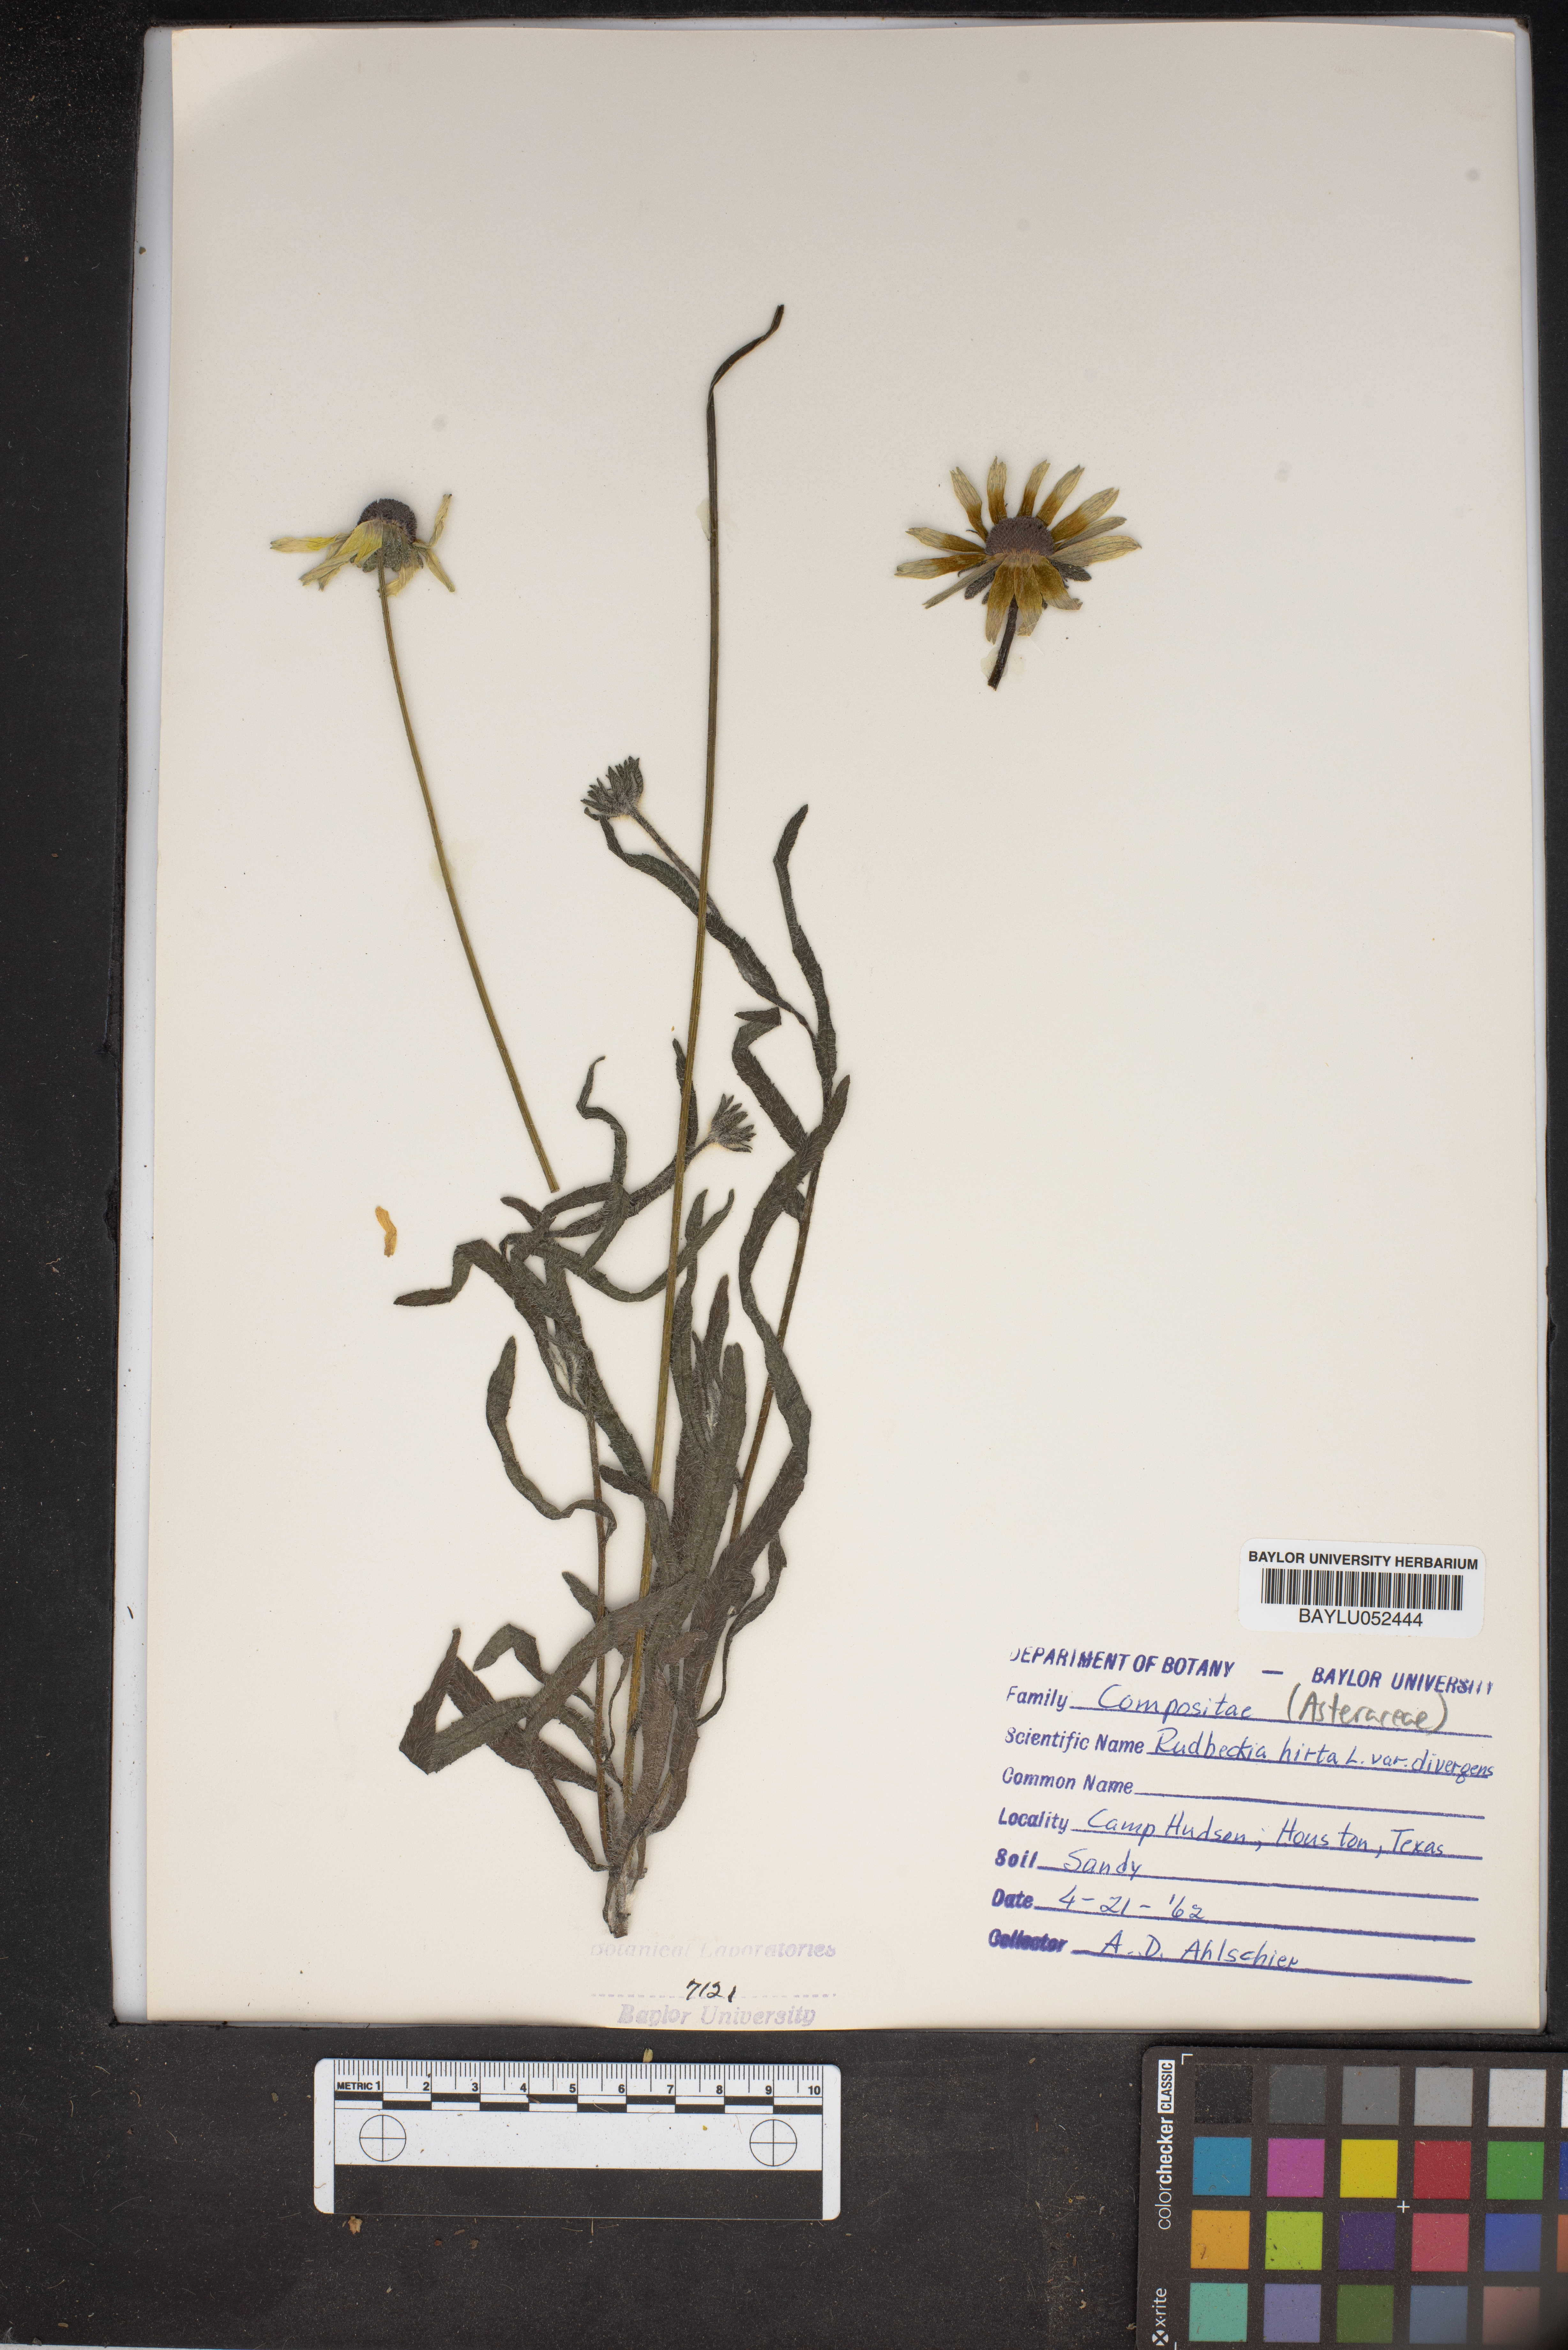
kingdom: Plantae
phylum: Tracheophyta
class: Magnoliopsida
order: Asterales
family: Asteraceae
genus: Rudbeckia
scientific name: Rudbeckia hirta
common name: Black-eyed-susan
